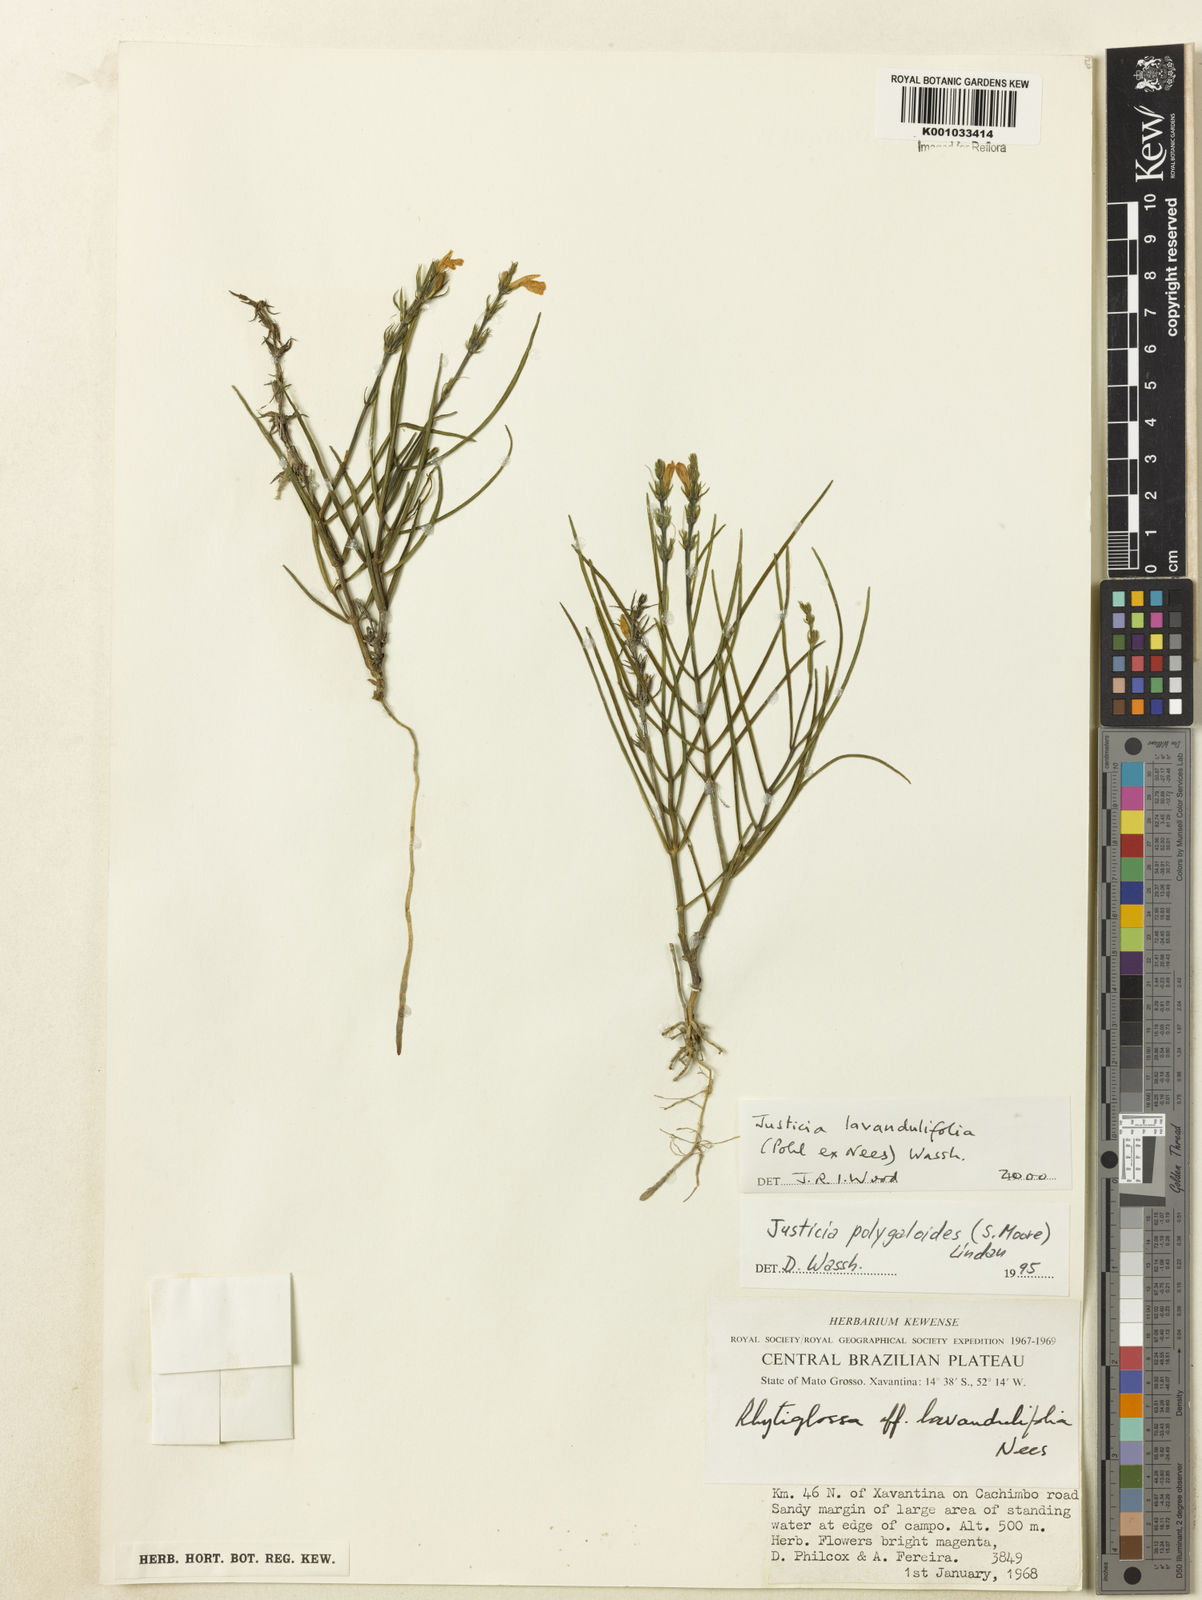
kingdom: Plantae
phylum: Tracheophyta
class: Magnoliopsida
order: Lamiales
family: Acanthaceae
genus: Justicia
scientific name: Justicia lavandulifolia
